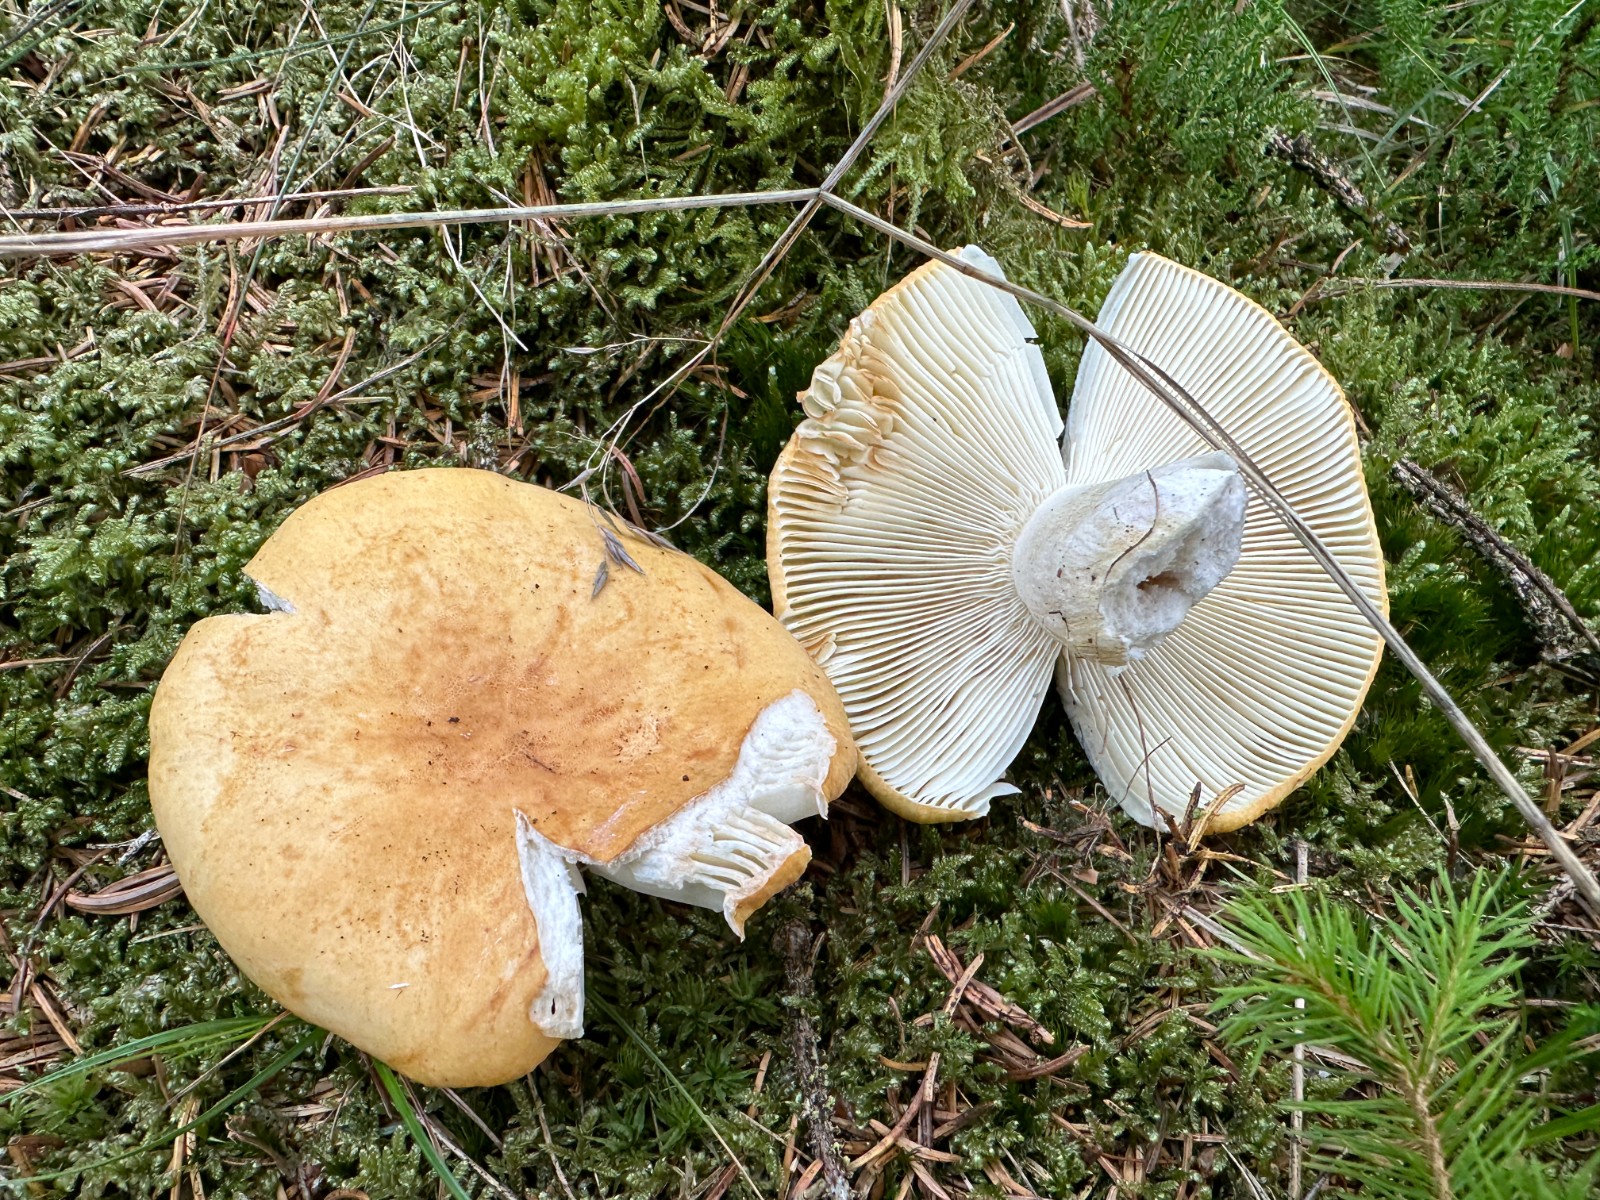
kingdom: Fungi
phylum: Basidiomycota
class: Agaricomycetes
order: Russulales
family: Russulaceae
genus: Russula
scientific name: Russula ochroleuca
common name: okkergul skørhat
